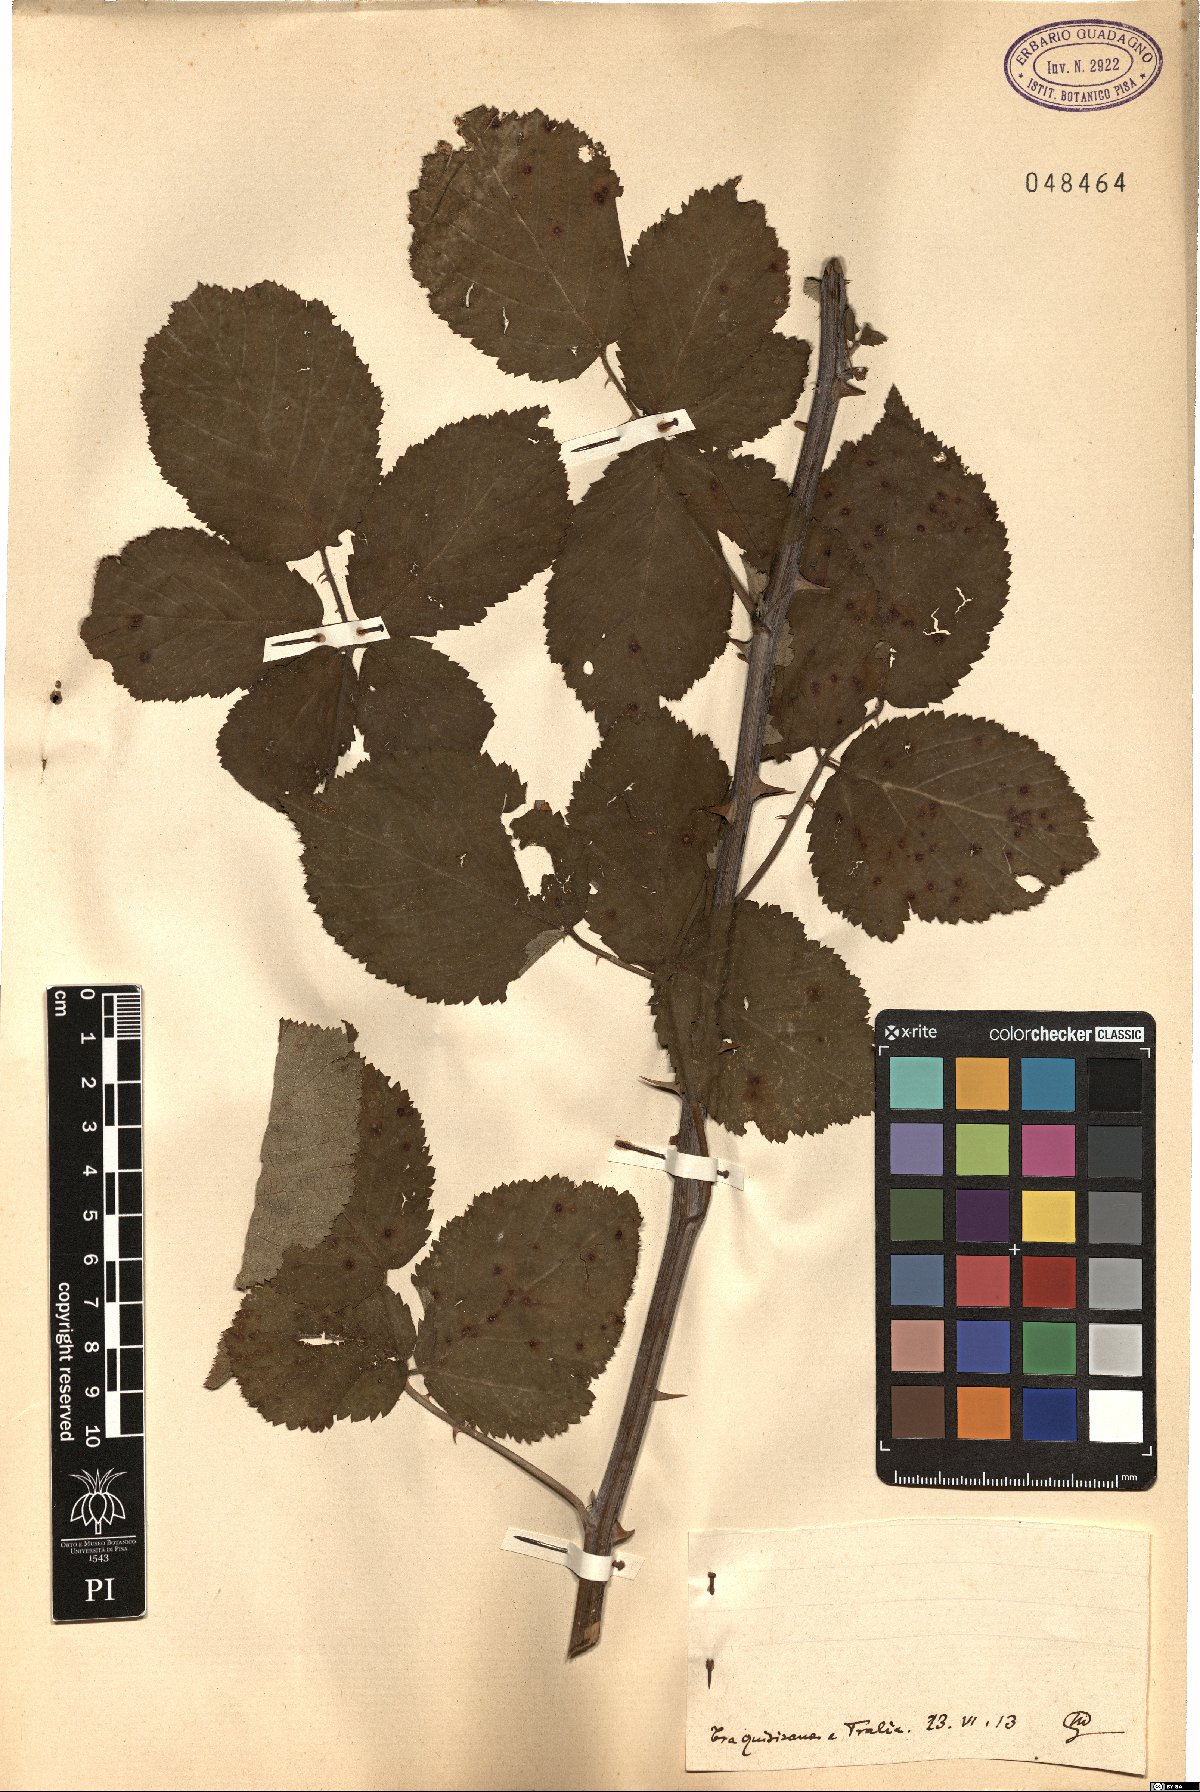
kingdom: Plantae
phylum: Tracheophyta
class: Magnoliopsida
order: Rosales
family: Rosaceae
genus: Rubus
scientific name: Rubus
